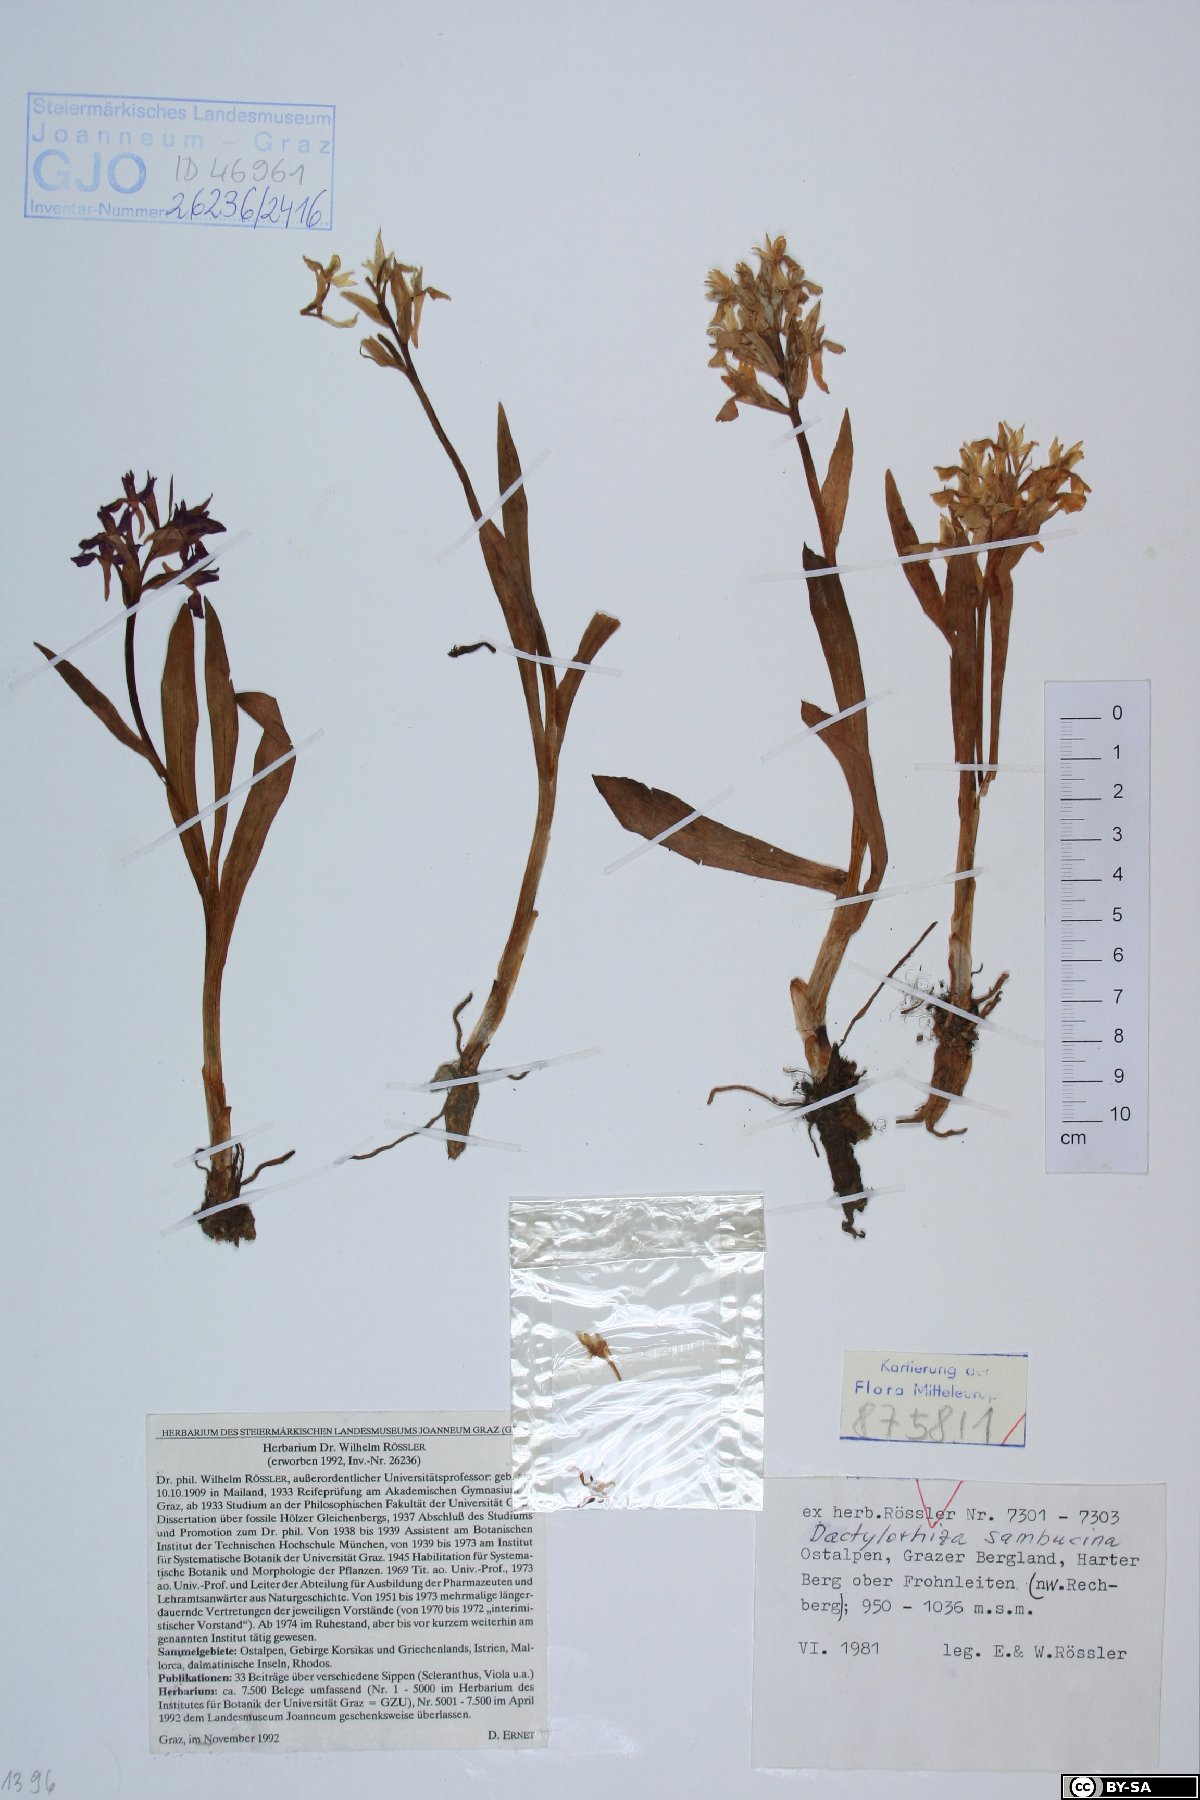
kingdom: Plantae
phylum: Tracheophyta
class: Liliopsida
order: Asparagales
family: Orchidaceae
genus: Dactylorhiza
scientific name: Dactylorhiza sambucina
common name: Elder-flowered orchid
